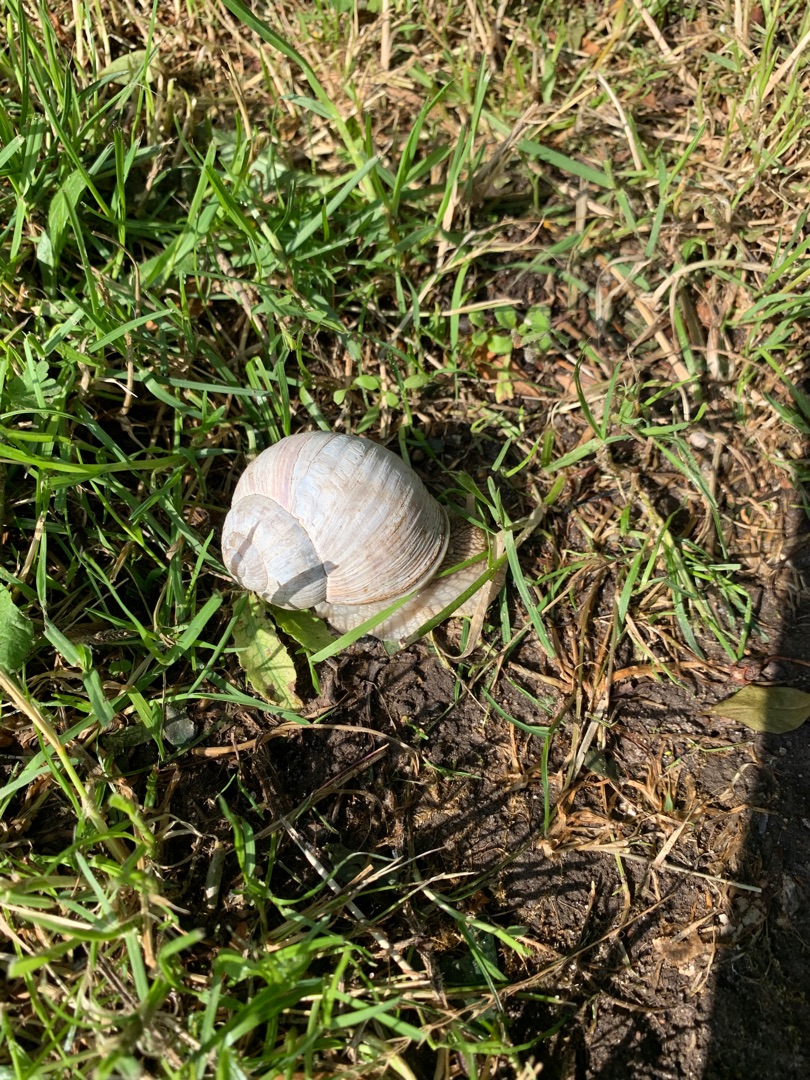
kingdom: Animalia
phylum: Mollusca
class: Gastropoda
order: Stylommatophora
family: Helicidae
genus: Helix
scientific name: Helix pomatia
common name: Vinbjergsnegl
